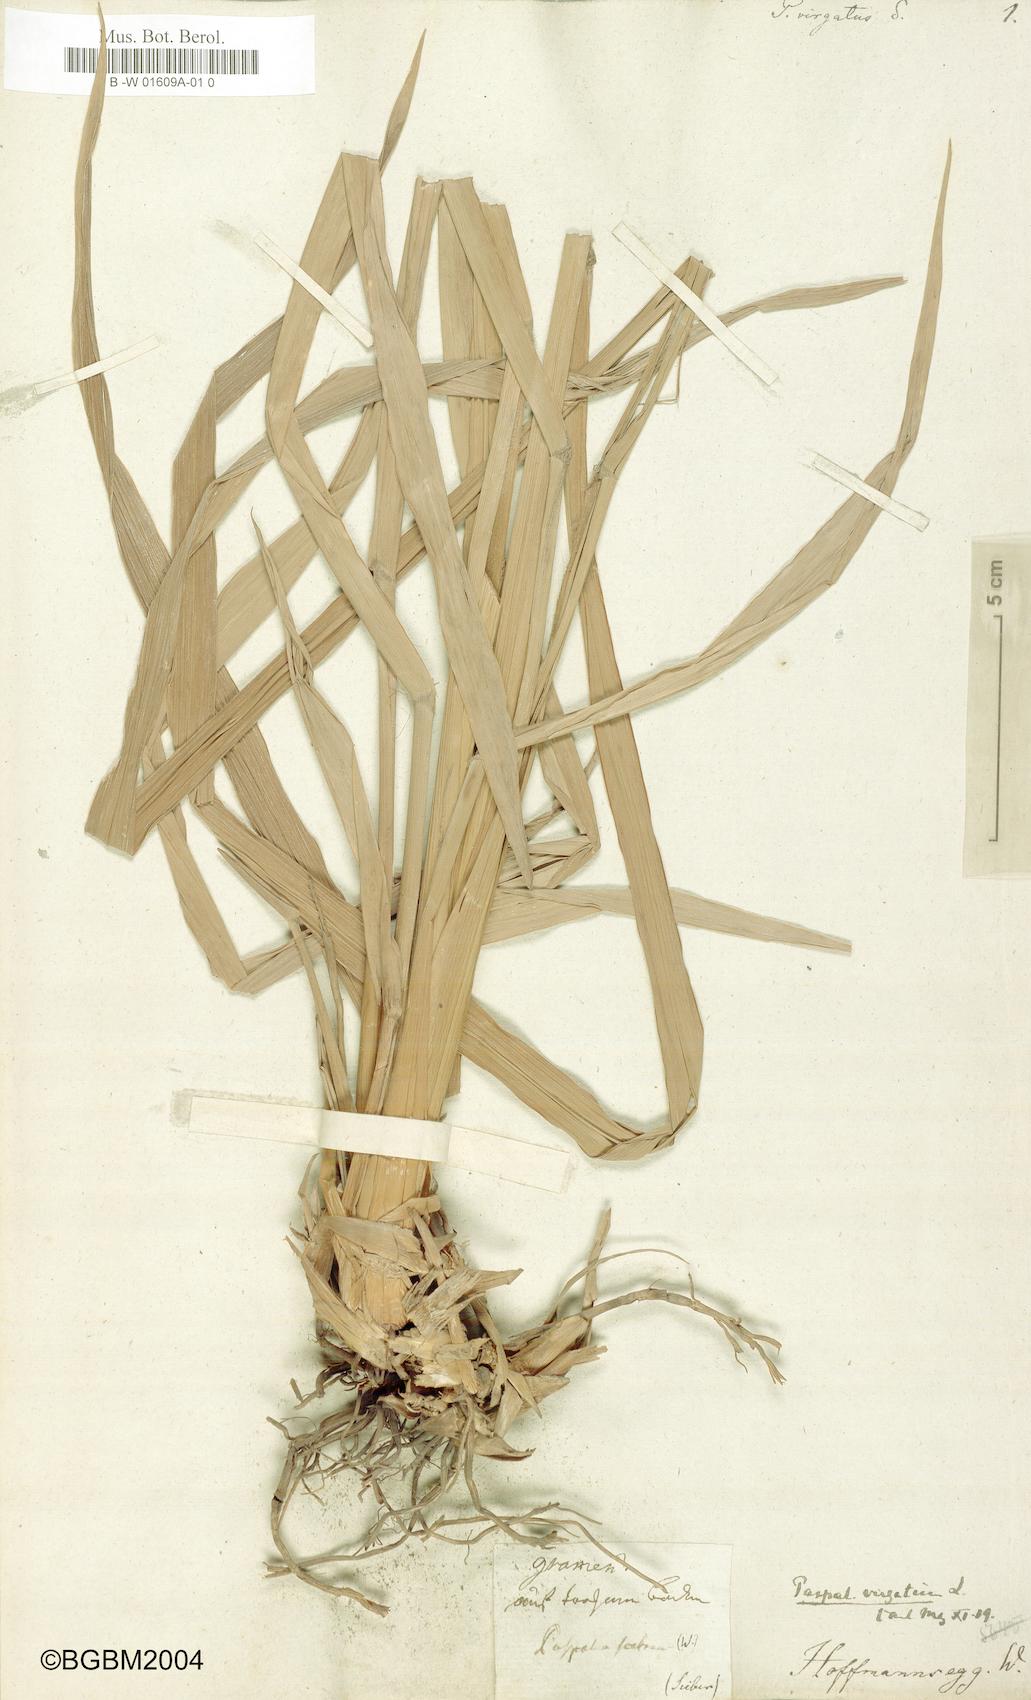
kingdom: Plantae
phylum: Tracheophyta
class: Liliopsida
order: Poales
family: Poaceae
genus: Paspalum
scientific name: Paspalum virgatum
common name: Talquezal
